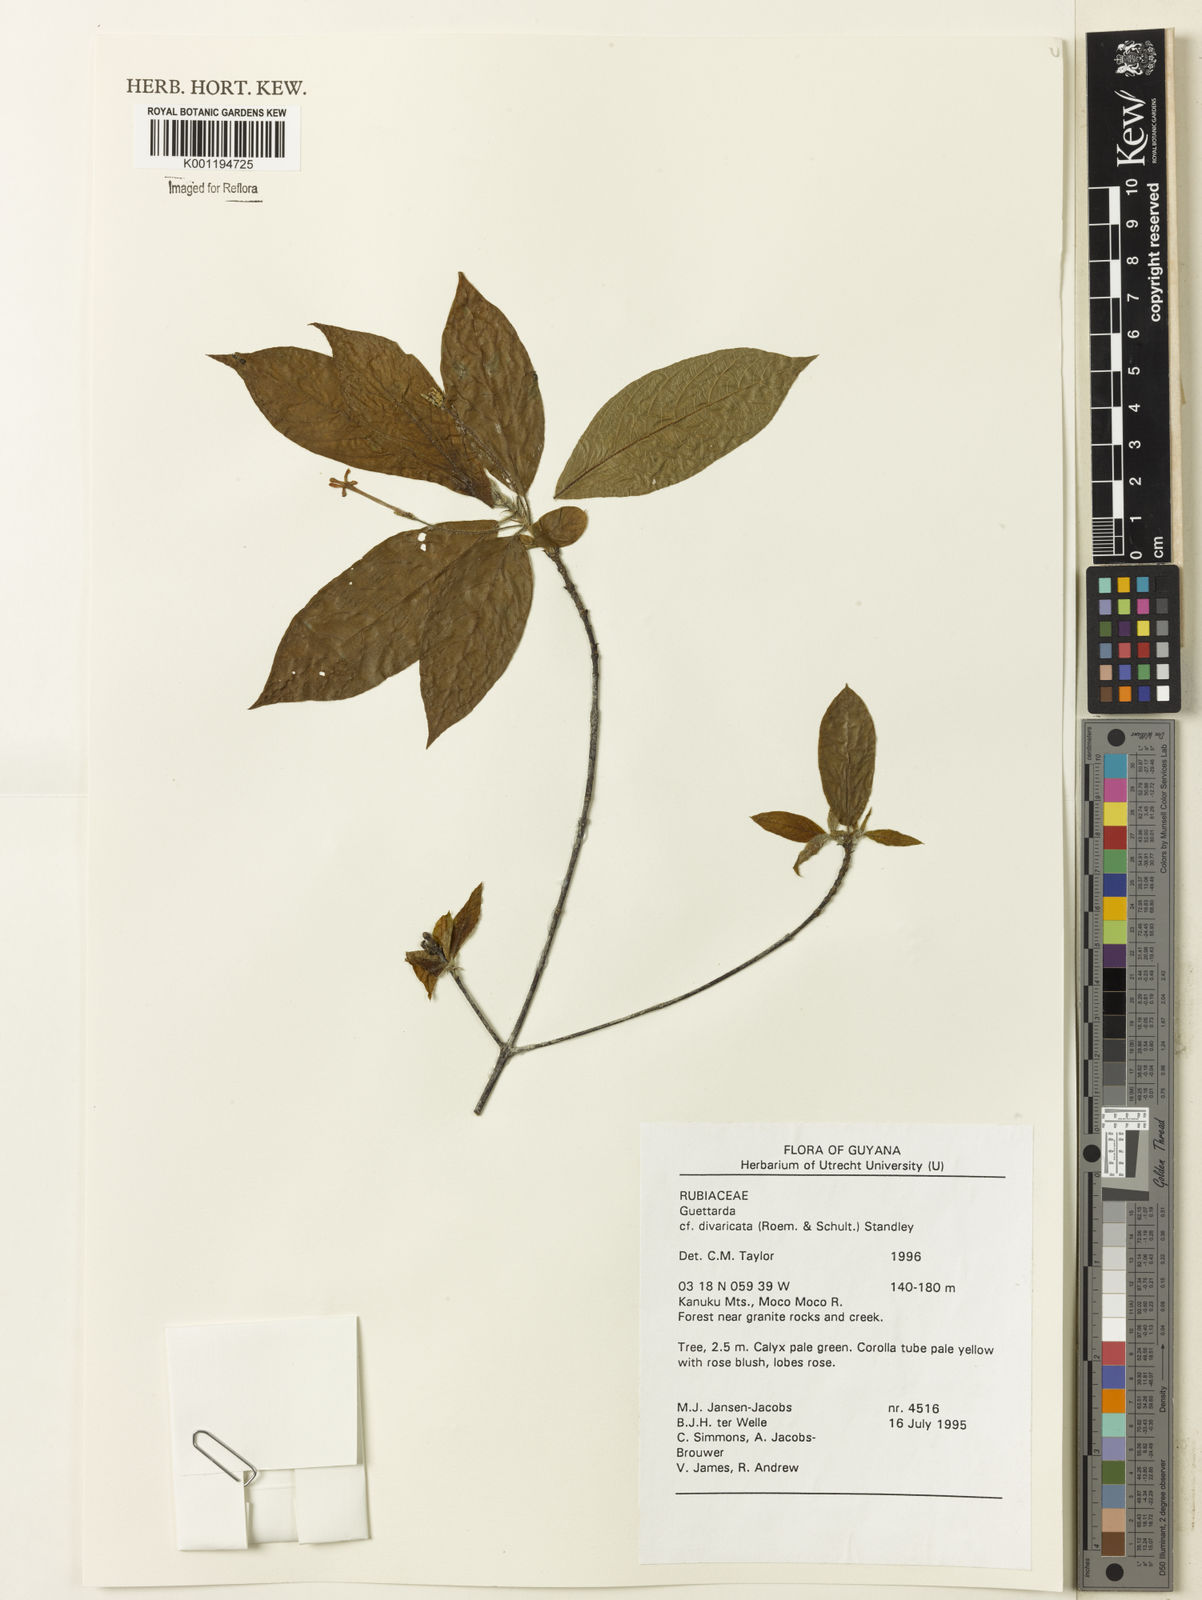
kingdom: Plantae
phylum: Tracheophyta
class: Magnoliopsida
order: Gentianales
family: Rubiaceae
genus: Guettarda
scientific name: Guettarda divaricata
